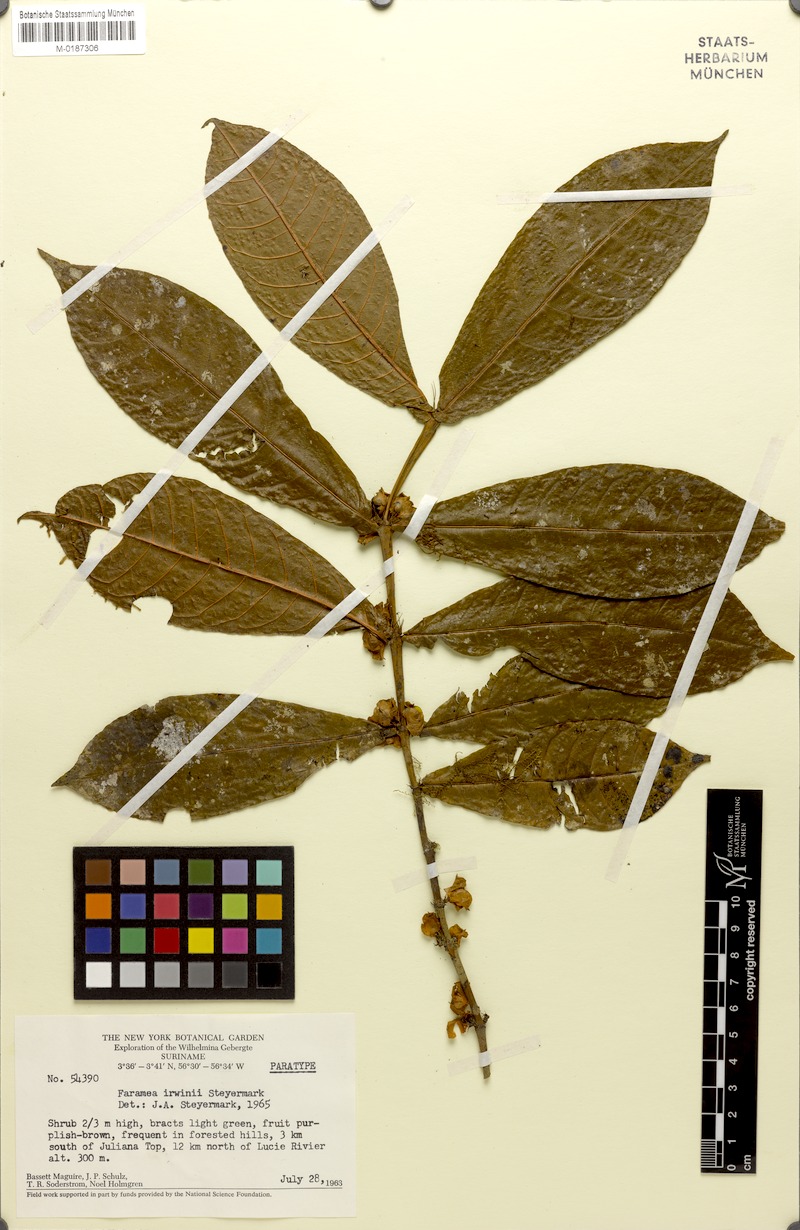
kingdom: Plantae
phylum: Tracheophyta
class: Magnoliopsida
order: Gentianales
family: Rubiaceae
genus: Faramea
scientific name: Faramea irwinii
